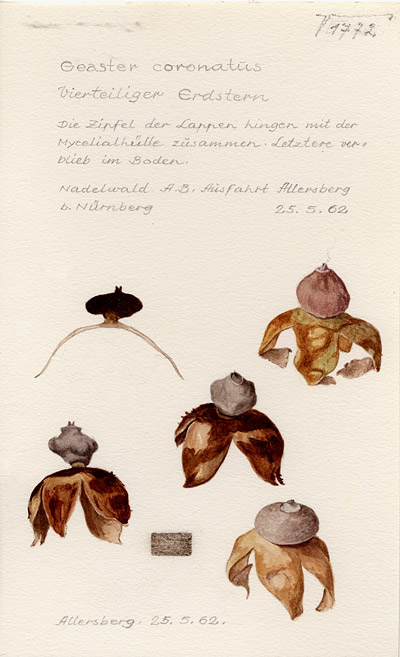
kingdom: Fungi
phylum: Basidiomycota
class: Agaricomycetes
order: Geastrales
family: Geastraceae
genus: Geastrum
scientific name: Geastrum coronatum
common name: Crowned earthstar
